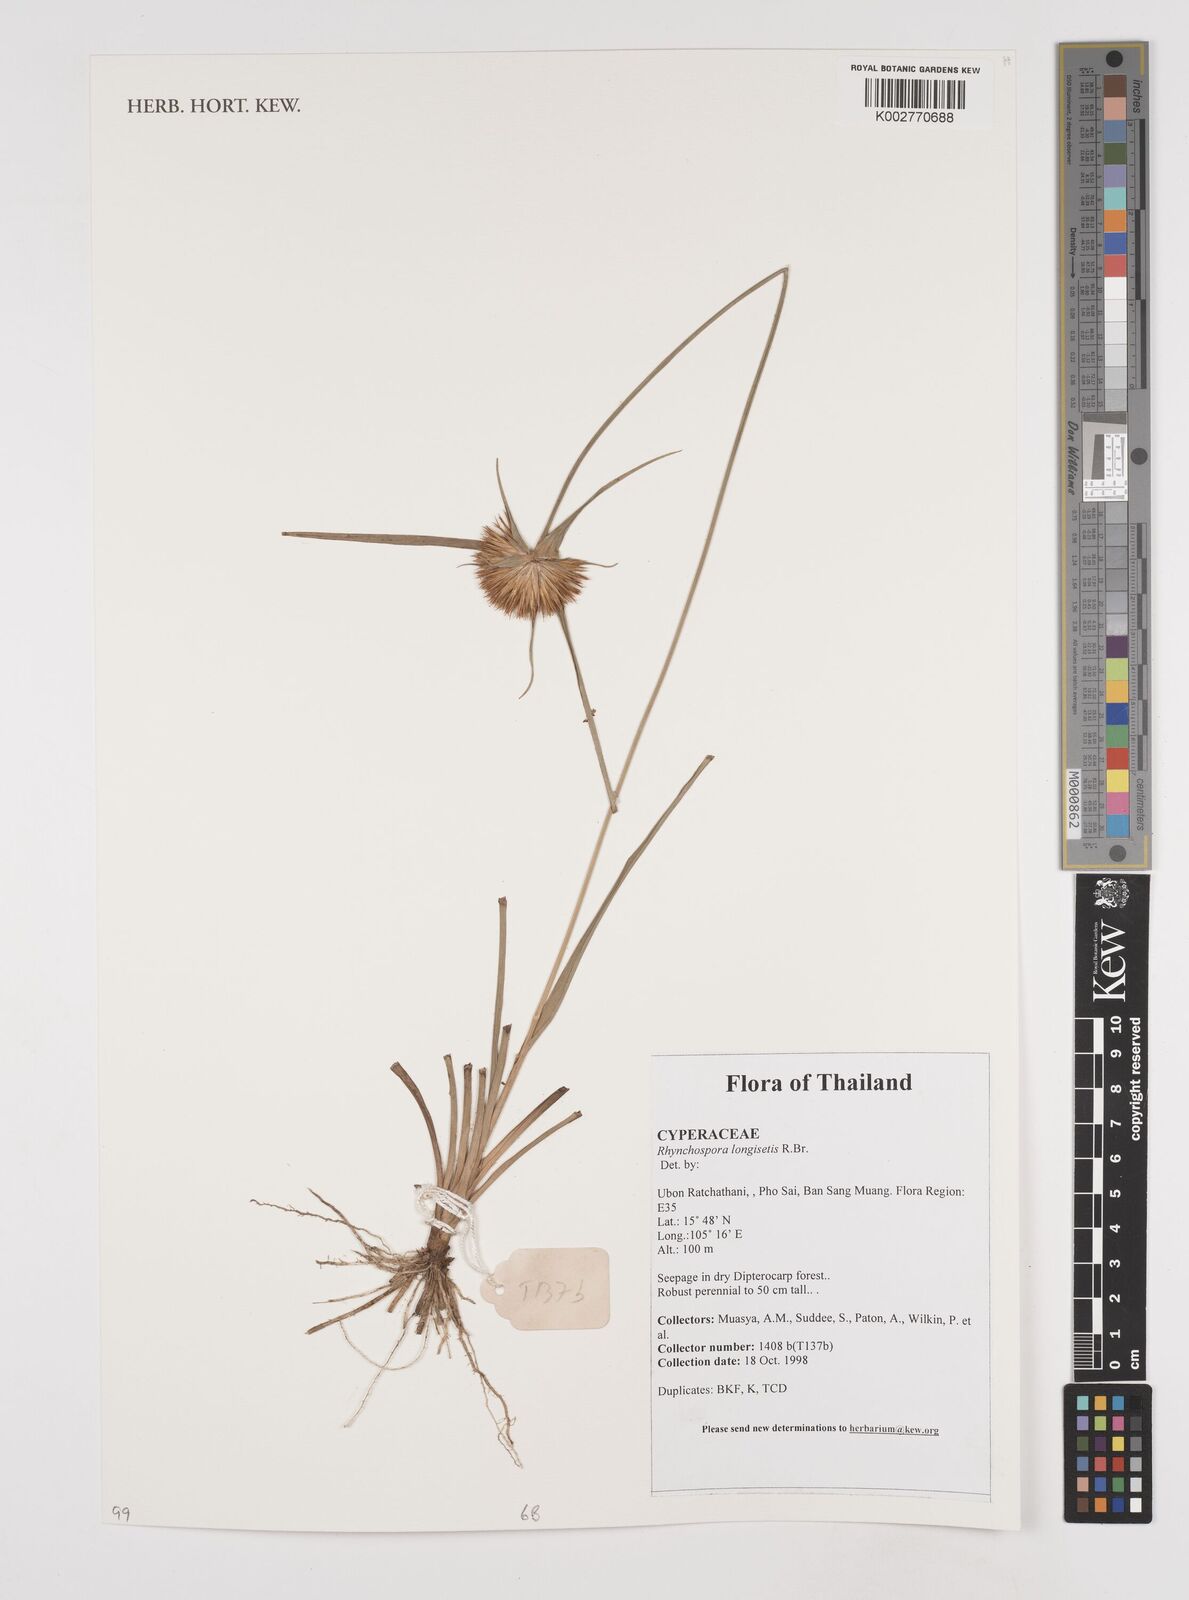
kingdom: Plantae
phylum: Tracheophyta
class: Liliopsida
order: Poales
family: Cyperaceae
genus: Rhynchospora
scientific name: Rhynchospora longisetis
